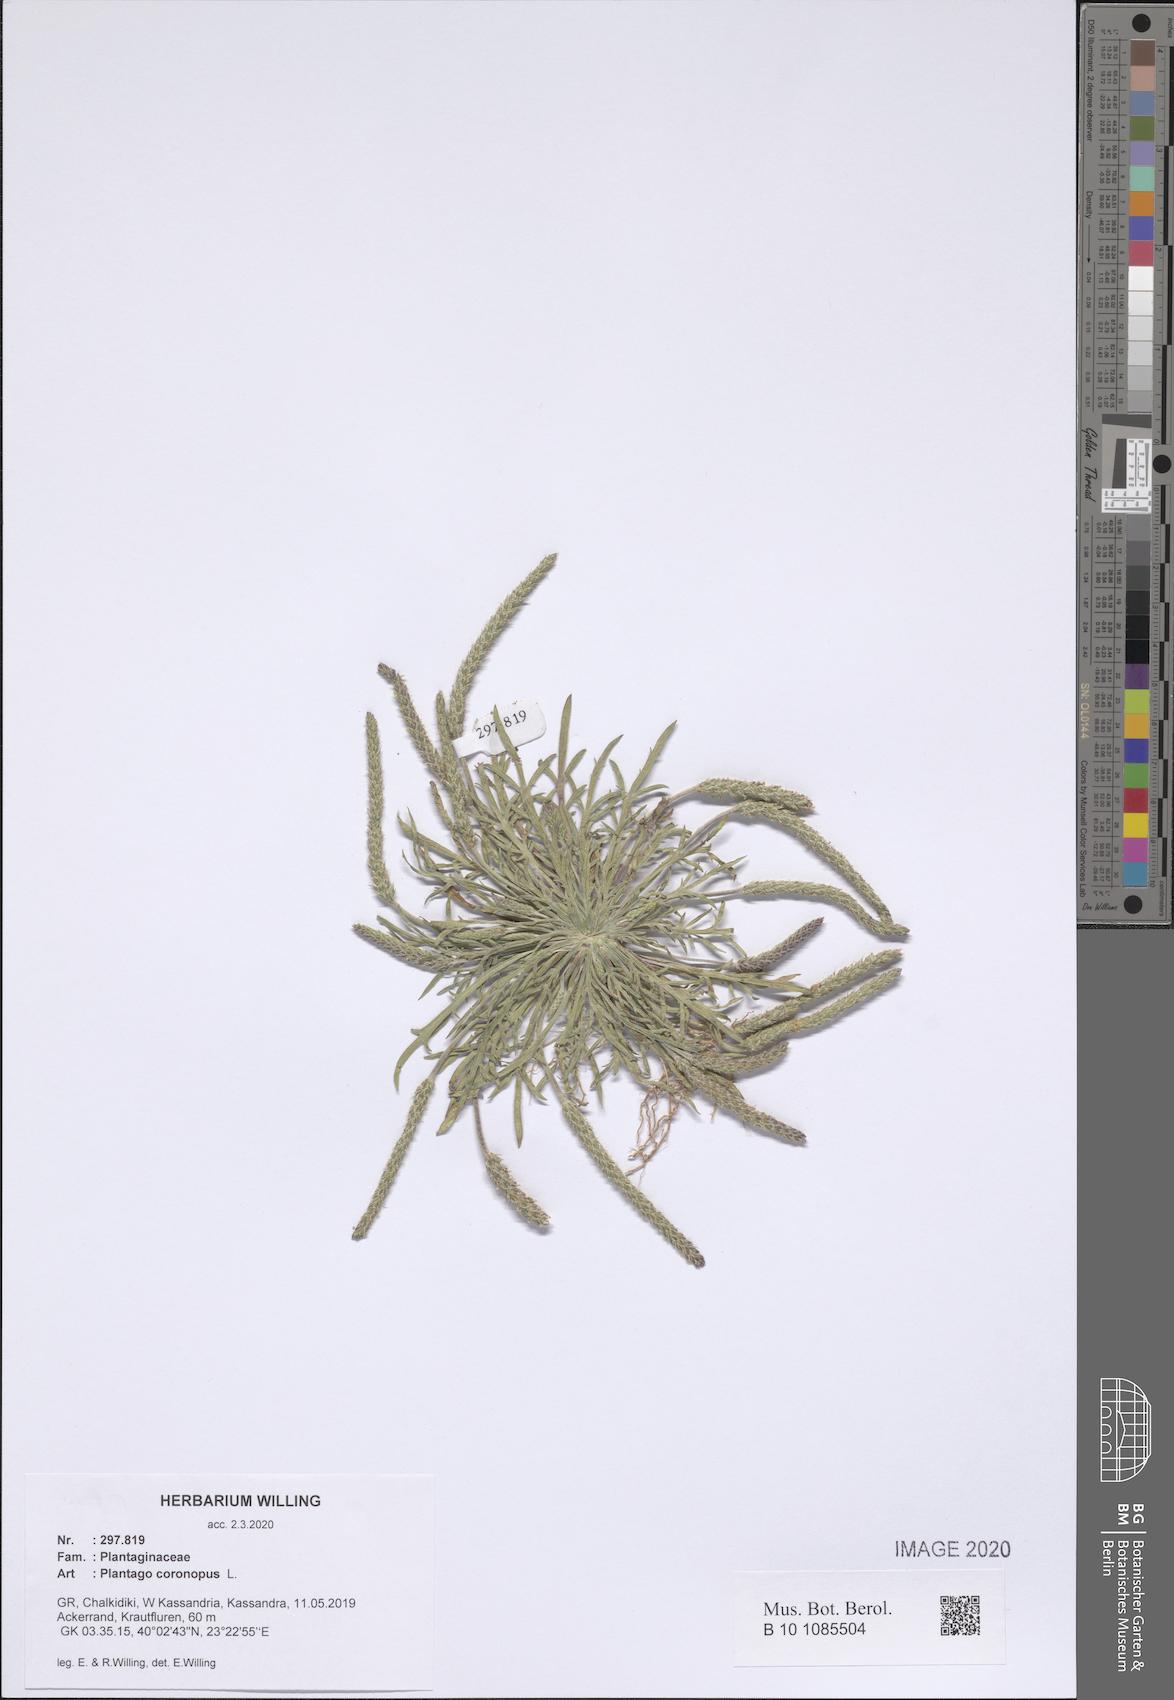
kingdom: Plantae
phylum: Tracheophyta
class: Magnoliopsida
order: Lamiales
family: Plantaginaceae
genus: Plantago
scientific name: Plantago coronopus
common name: Buck's-horn plantain
